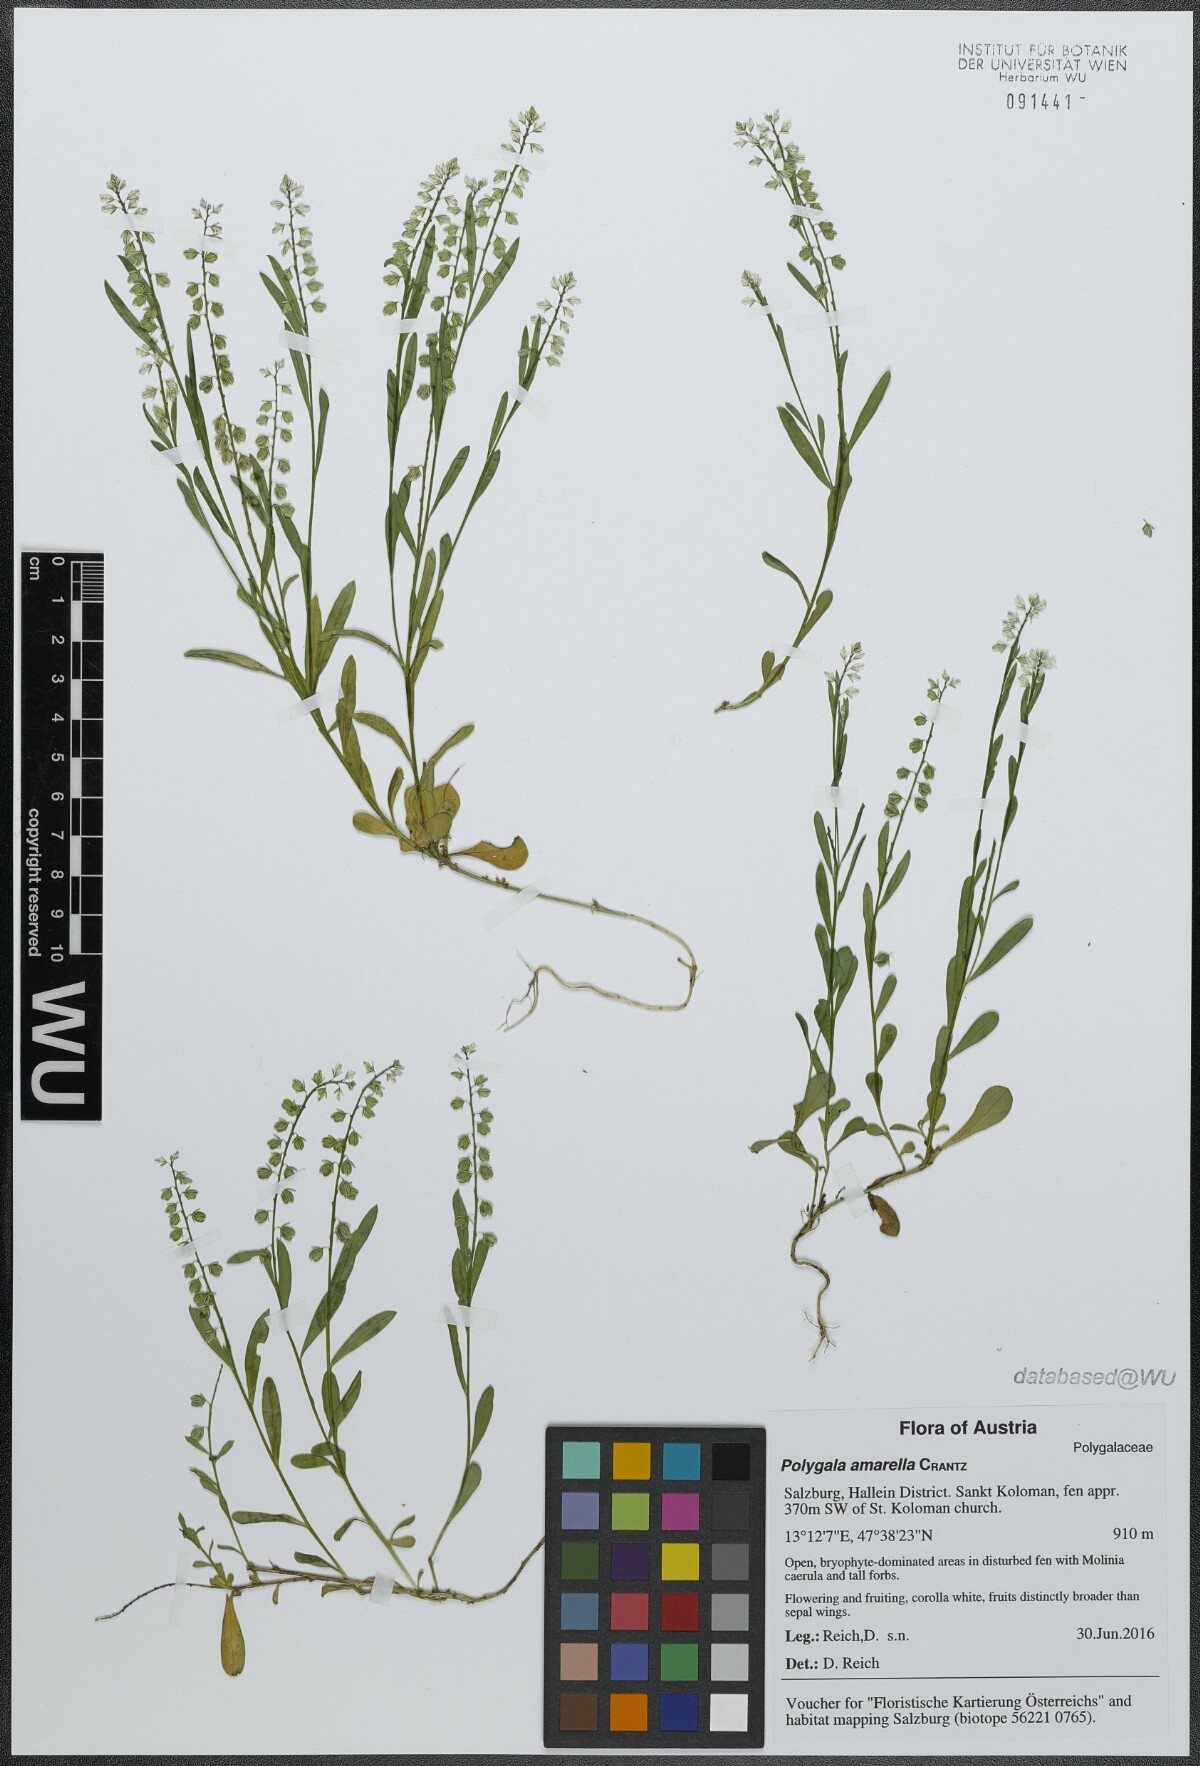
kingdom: Plantae
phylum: Tracheophyta
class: Magnoliopsida
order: Fabales
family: Polygalaceae
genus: Polygala
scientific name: Polygala amarella
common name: Dwarf milkwort
